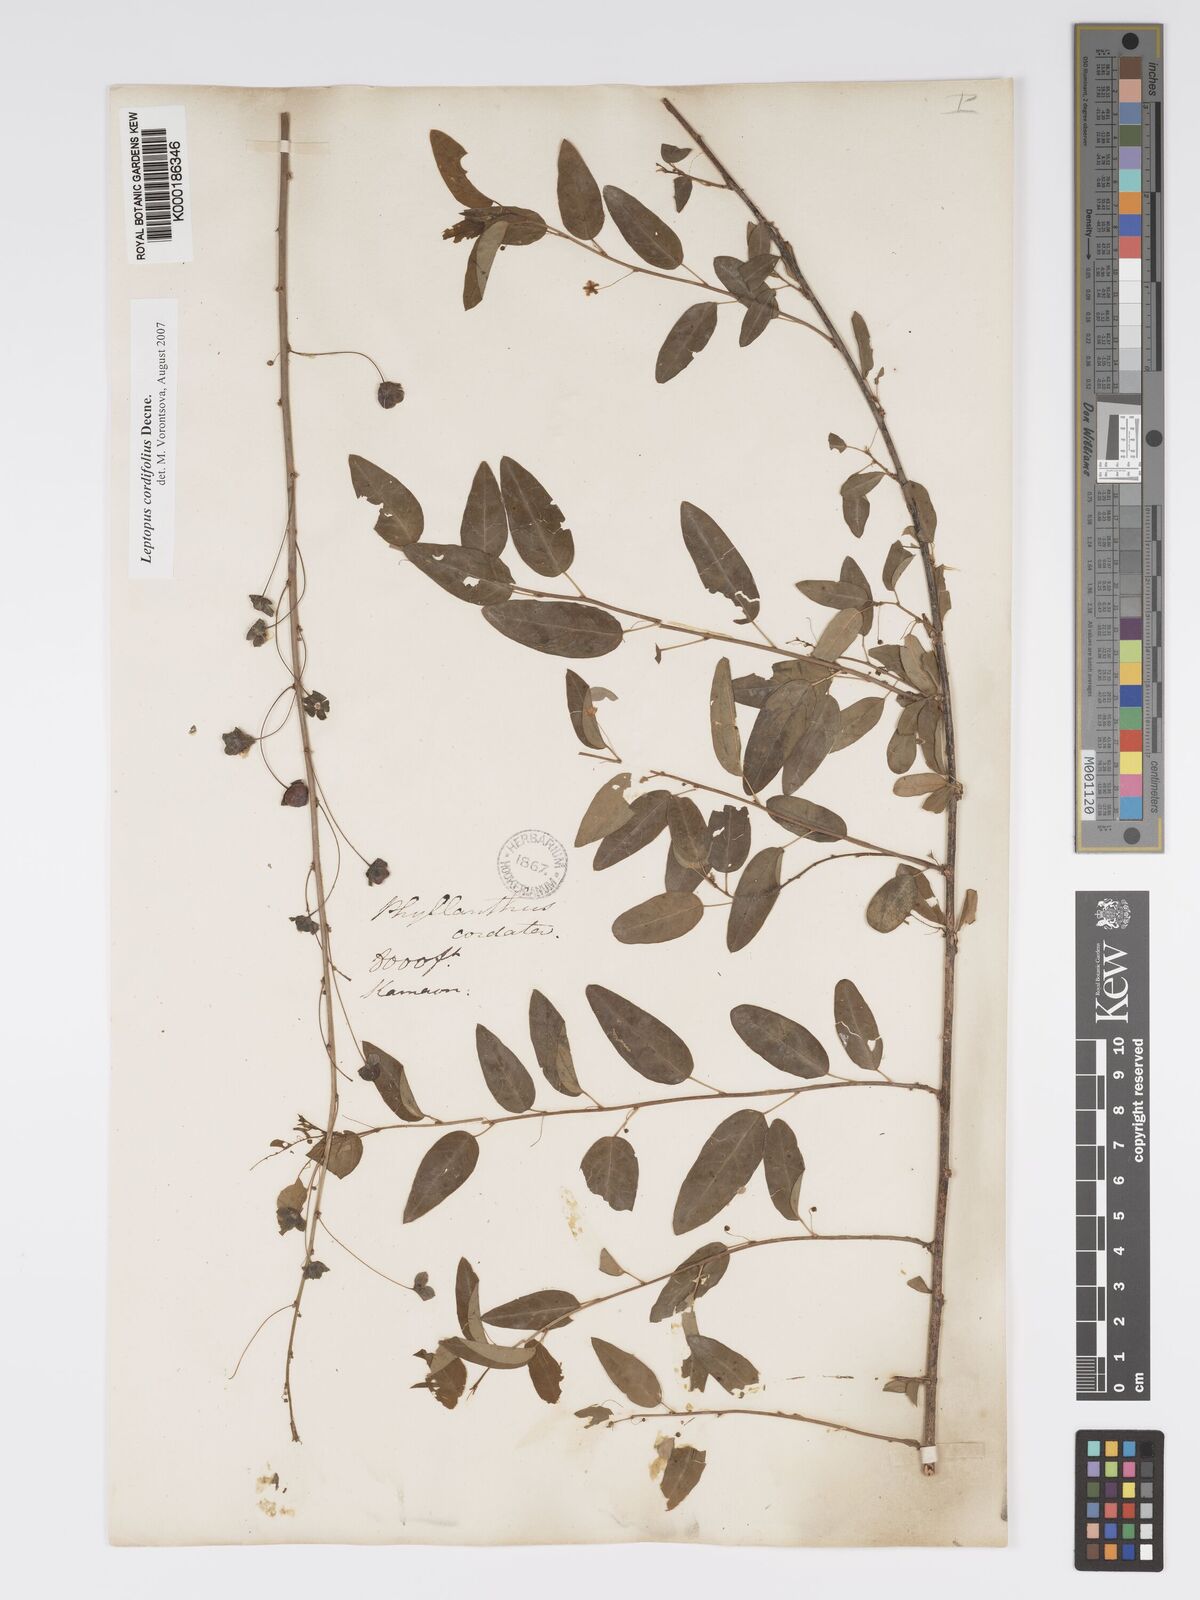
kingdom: Plantae
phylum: Tracheophyta
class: Magnoliopsida
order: Malpighiales
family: Phyllanthaceae
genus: Leptopus
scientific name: Leptopus cordifolius
